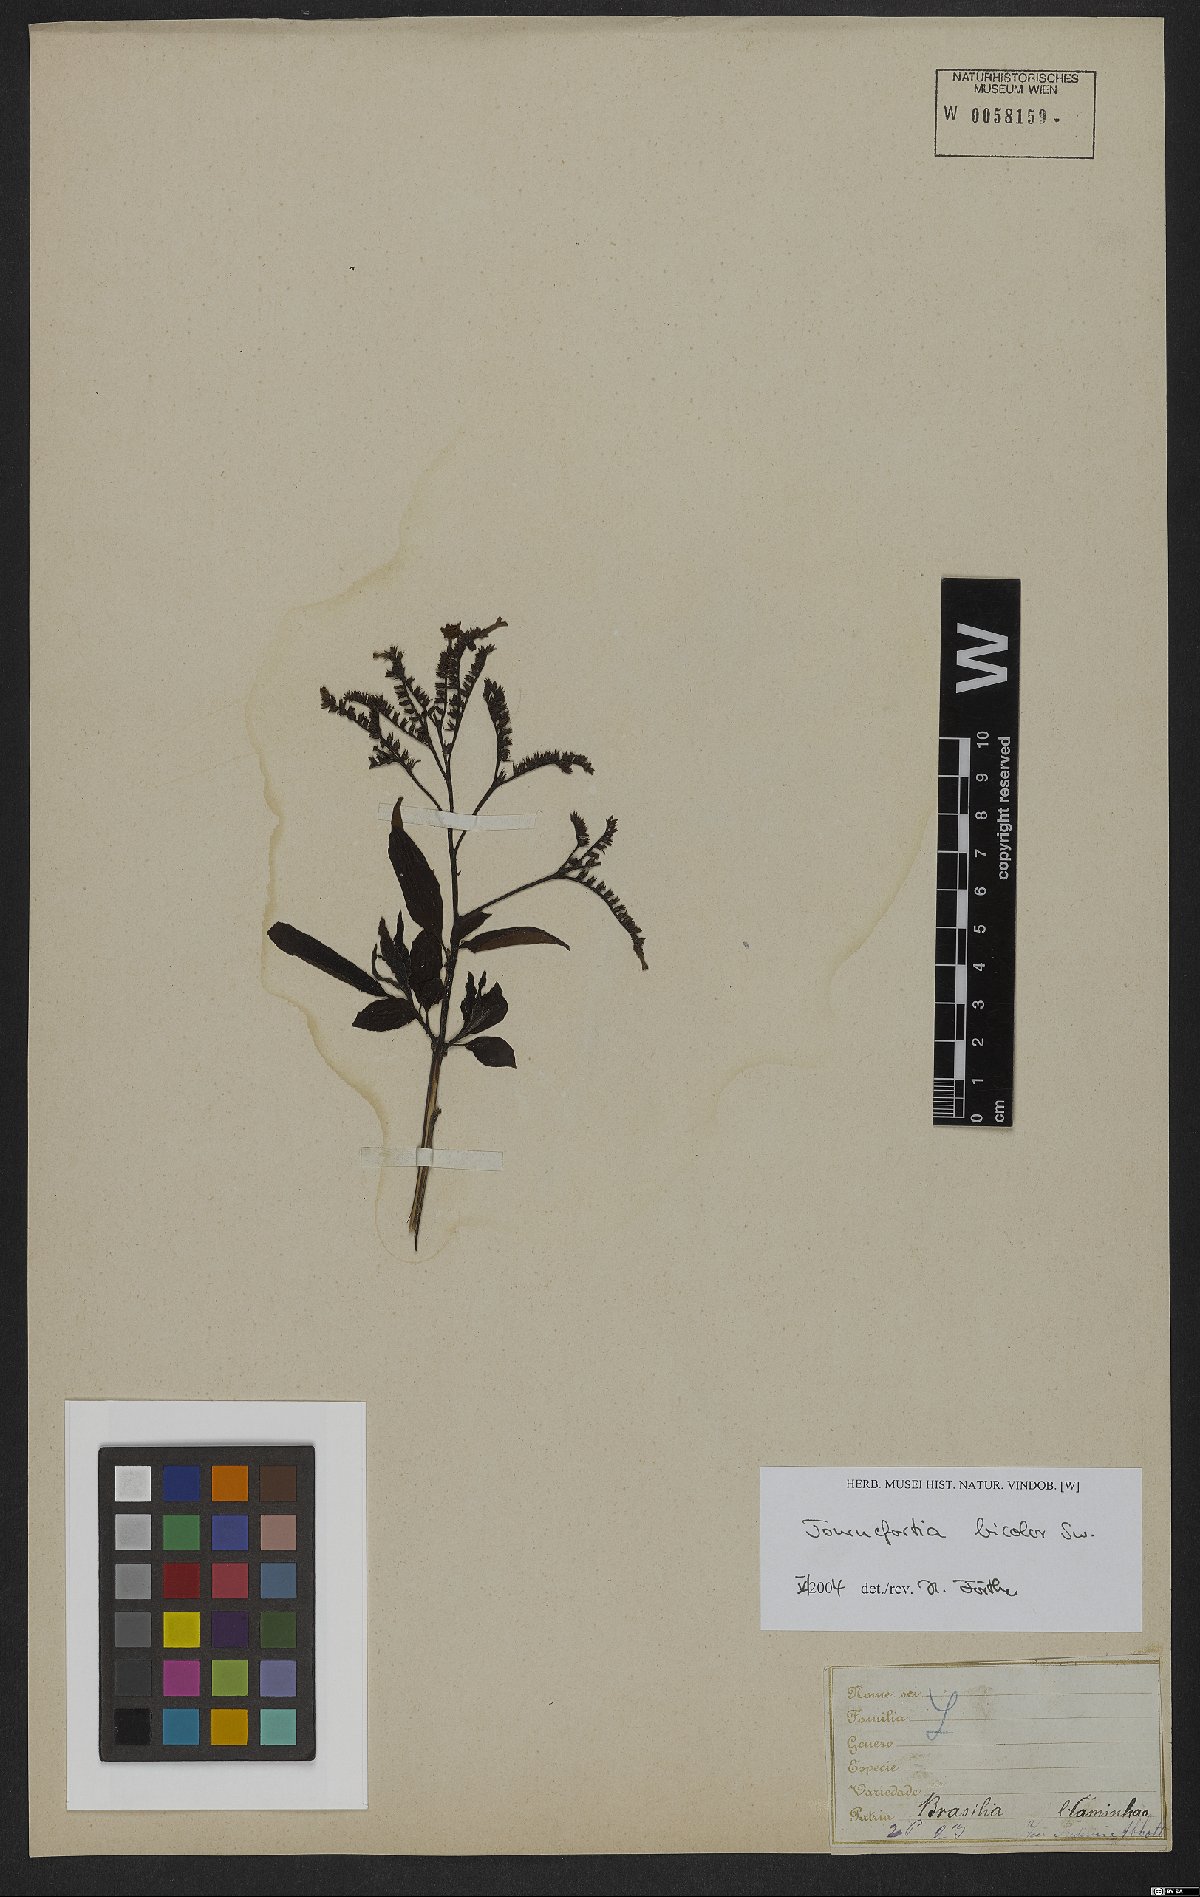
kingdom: Plantae
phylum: Tracheophyta
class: Magnoliopsida
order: Boraginales
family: Heliotropiaceae
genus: Heliotropium
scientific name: Heliotropium verdcourtii
